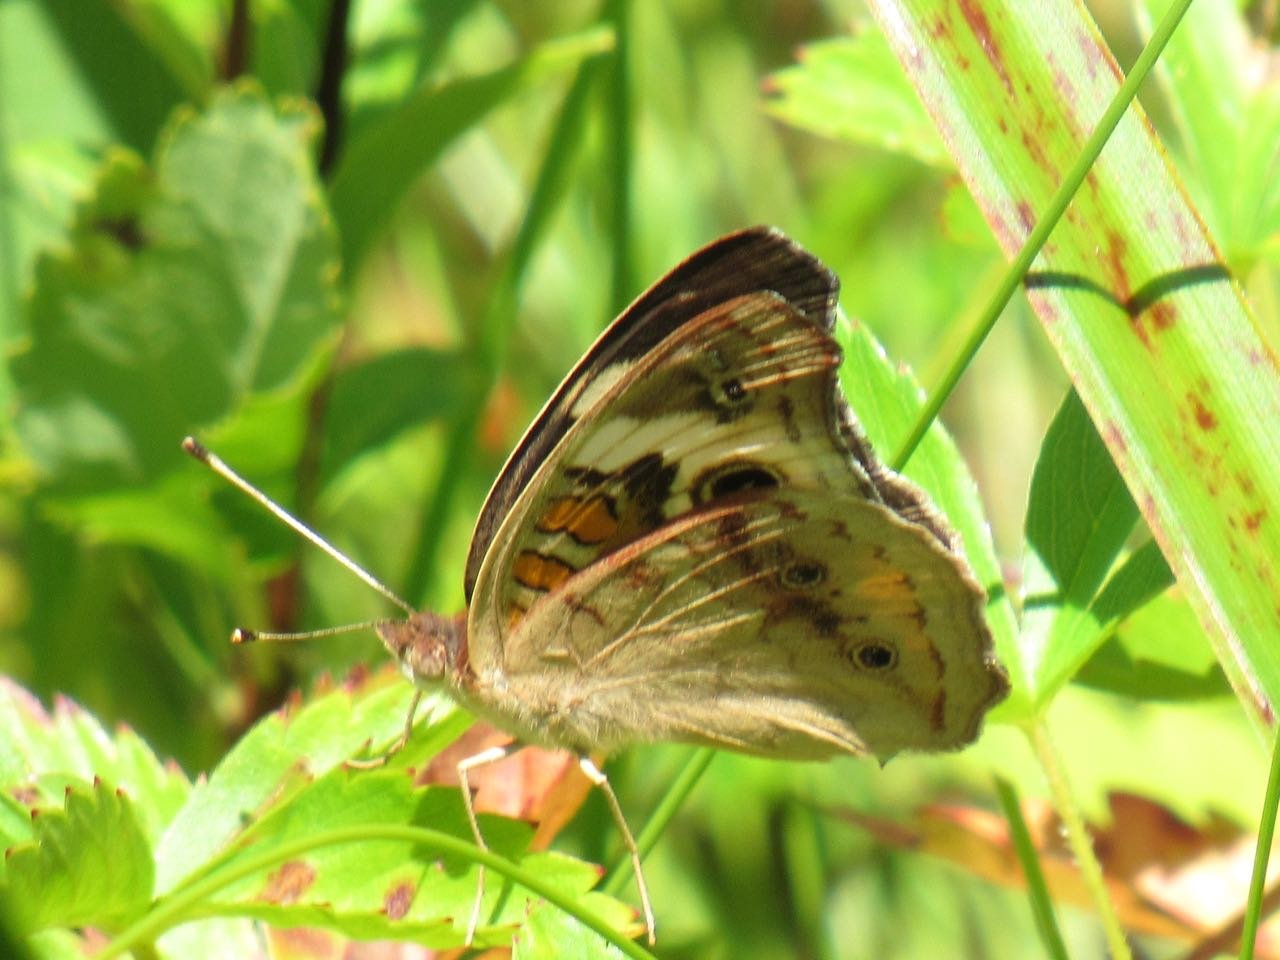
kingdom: Animalia
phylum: Arthropoda
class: Insecta
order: Lepidoptera
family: Nymphalidae
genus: Junonia
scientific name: Junonia coenia
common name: Common Buckeye
